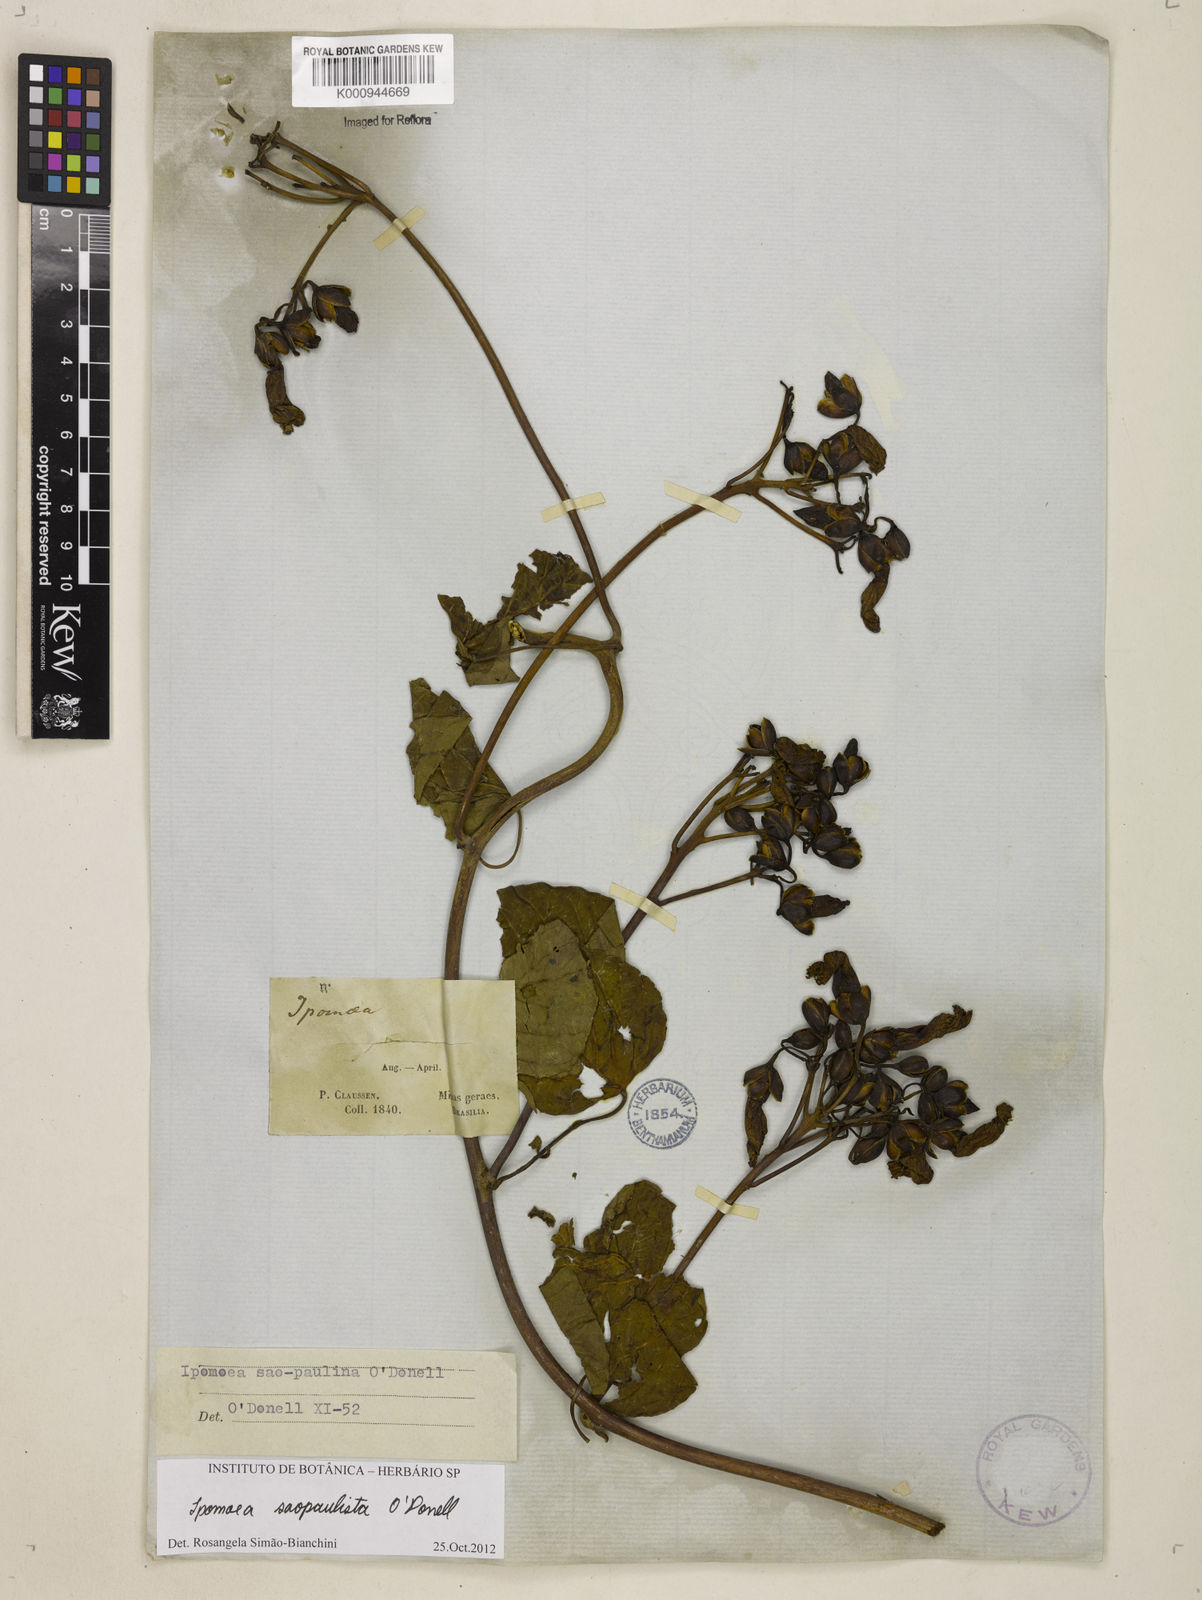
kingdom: Plantae
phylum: Tracheophyta
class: Magnoliopsida
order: Solanales
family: Convolvulaceae
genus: Ipomoea
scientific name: Ipomoea
